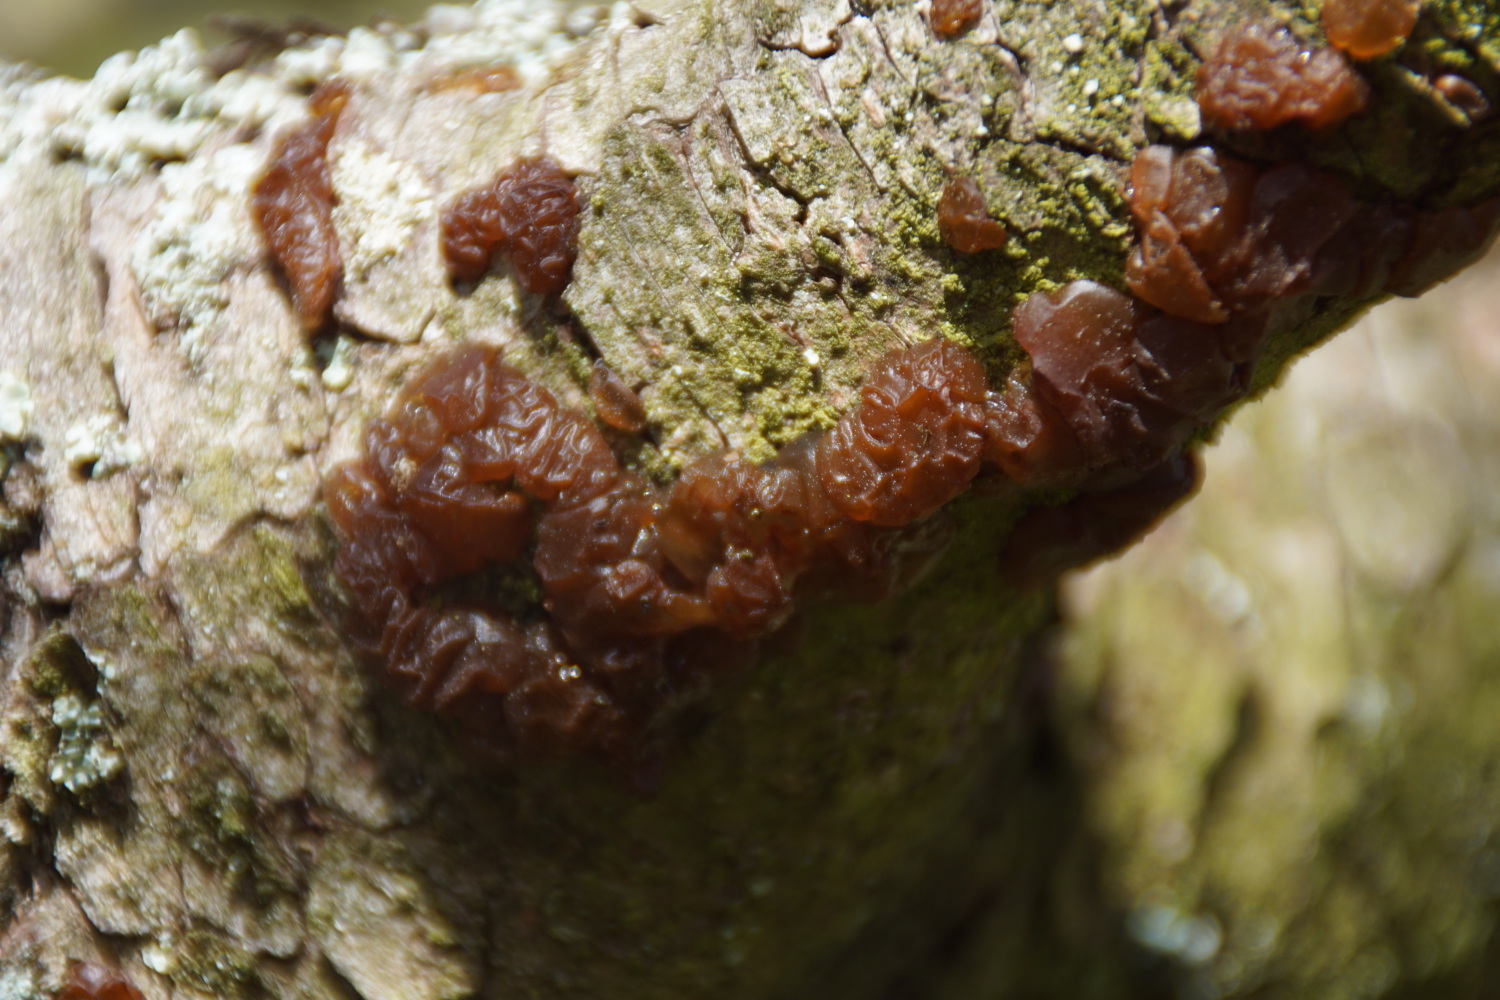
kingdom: Fungi
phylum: Basidiomycota
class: Agaricomycetes
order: Auriculariales
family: Auriculariaceae
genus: Exidia
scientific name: Exidia saccharina
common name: kandis-bævretop
